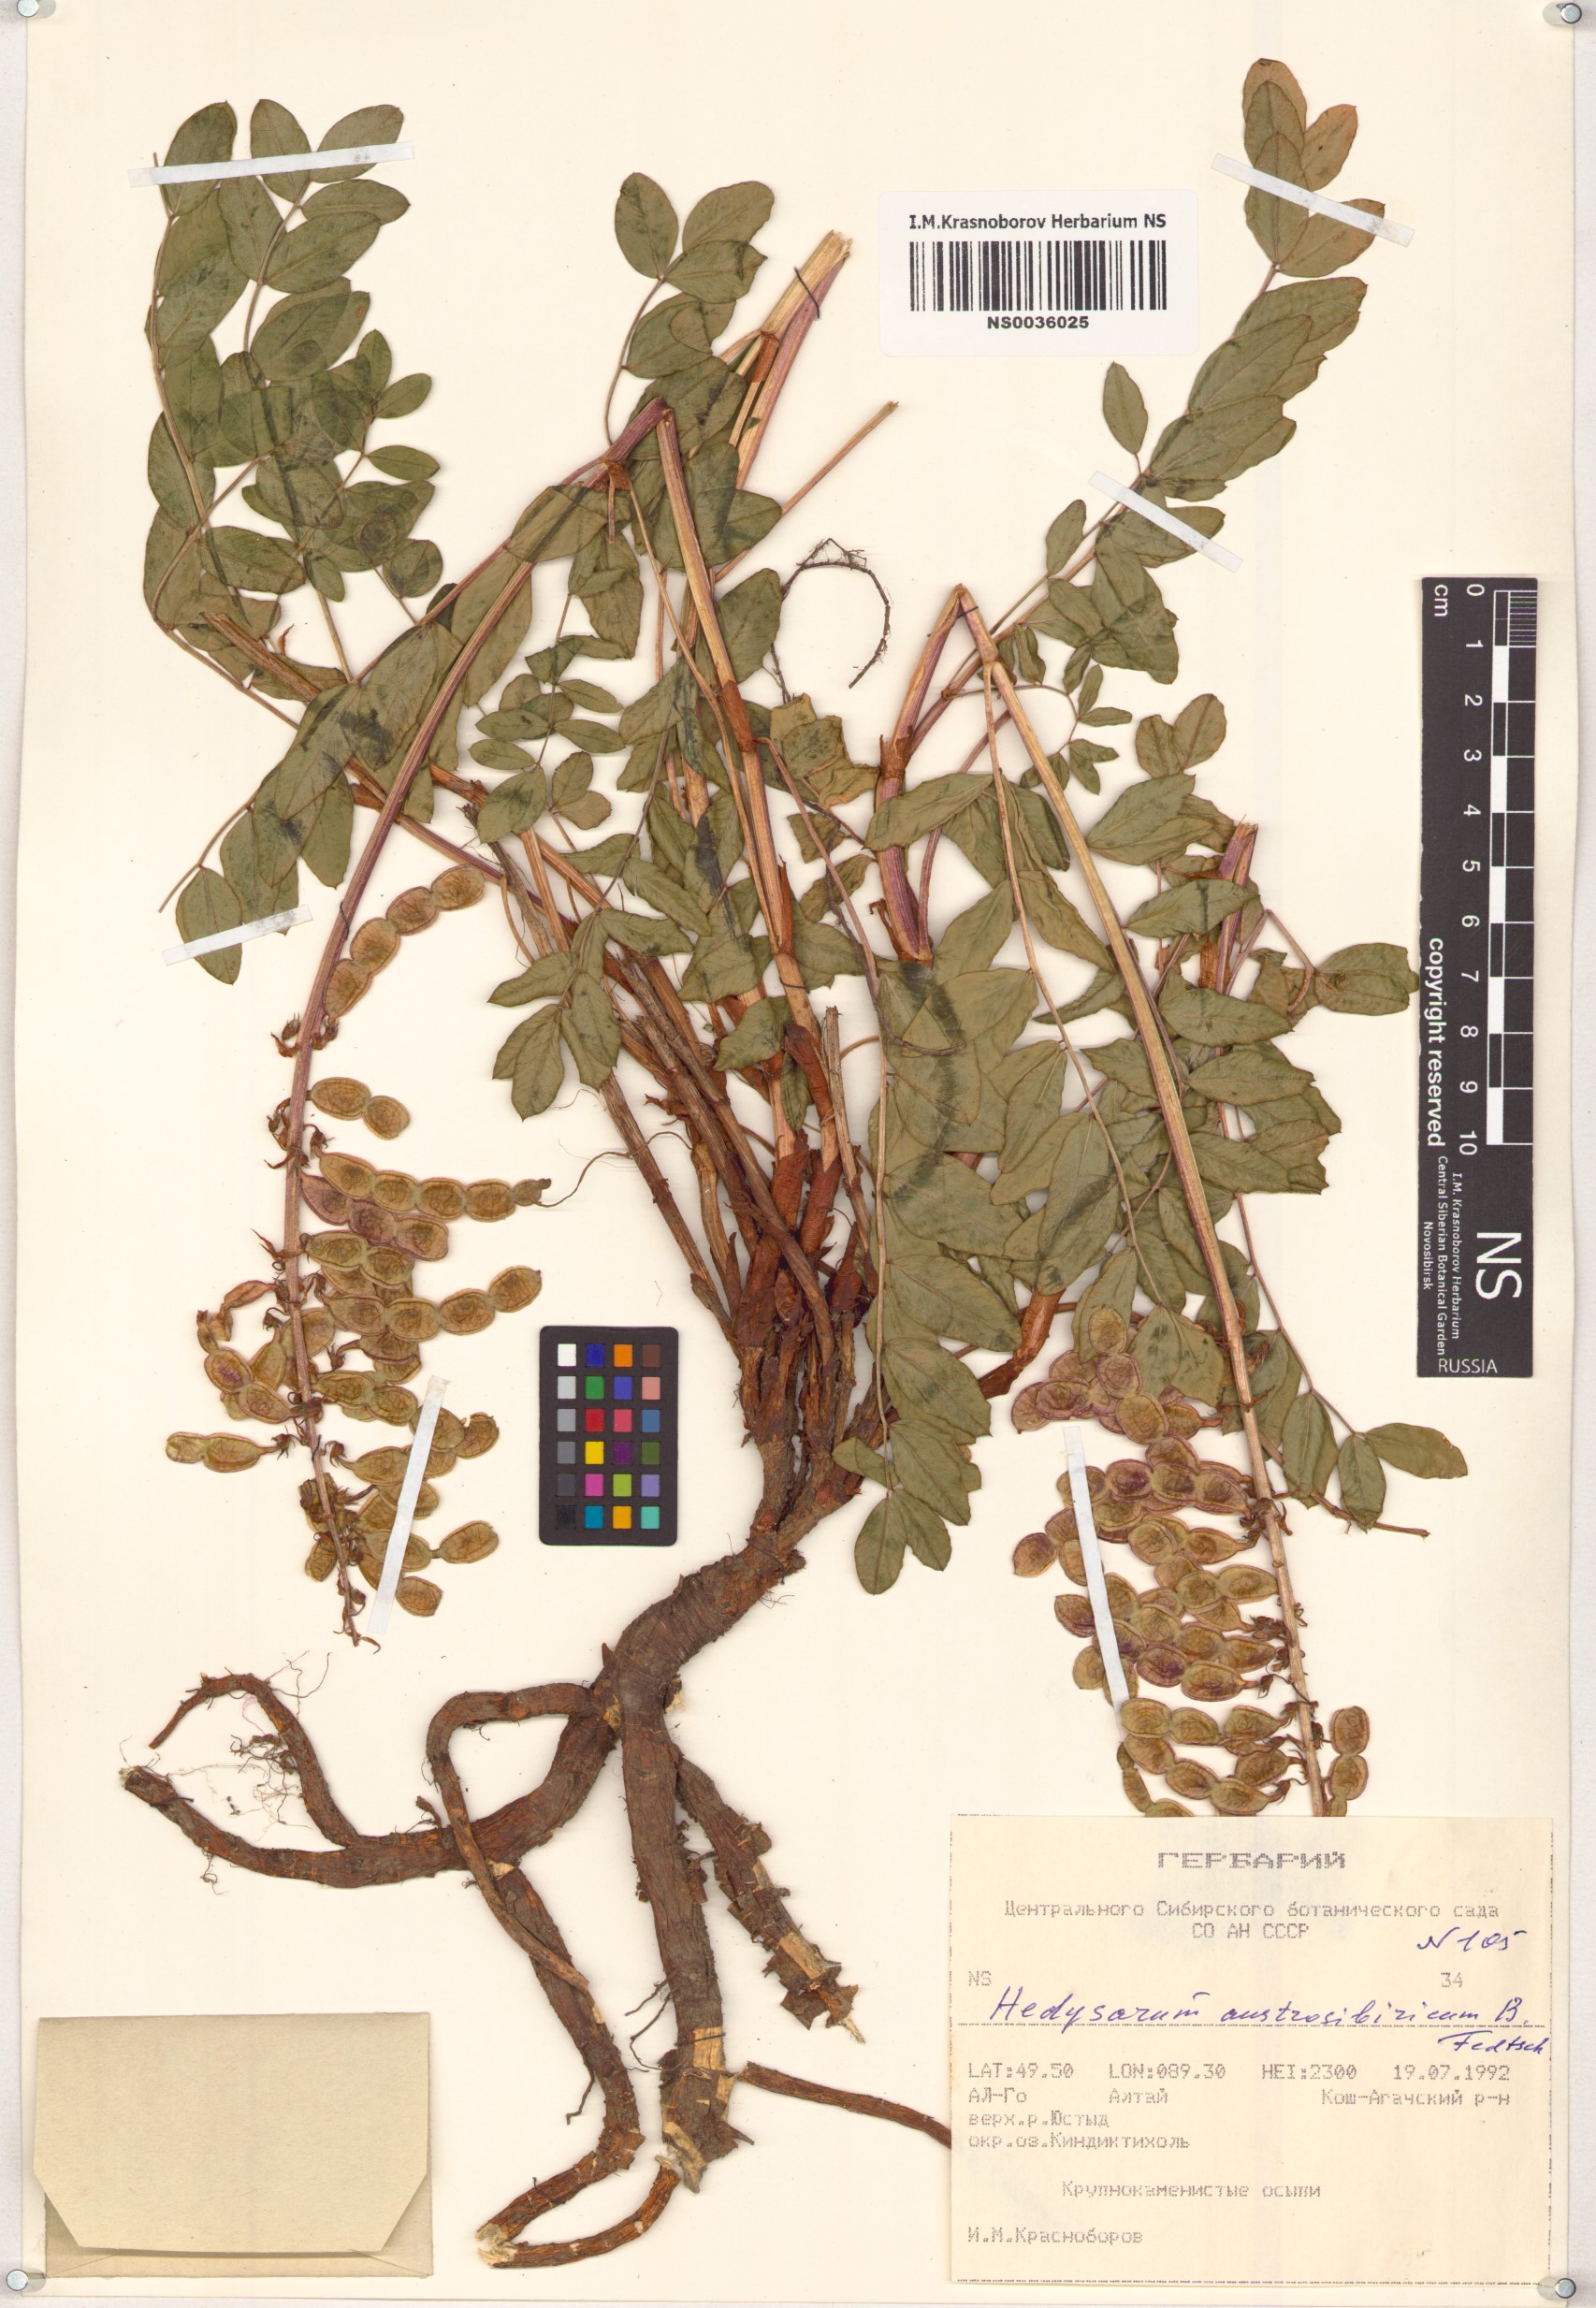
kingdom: Plantae
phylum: Tracheophyta
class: Magnoliopsida
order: Fabales
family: Fabaceae
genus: Hedysarum
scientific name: Hedysarum neglectum
